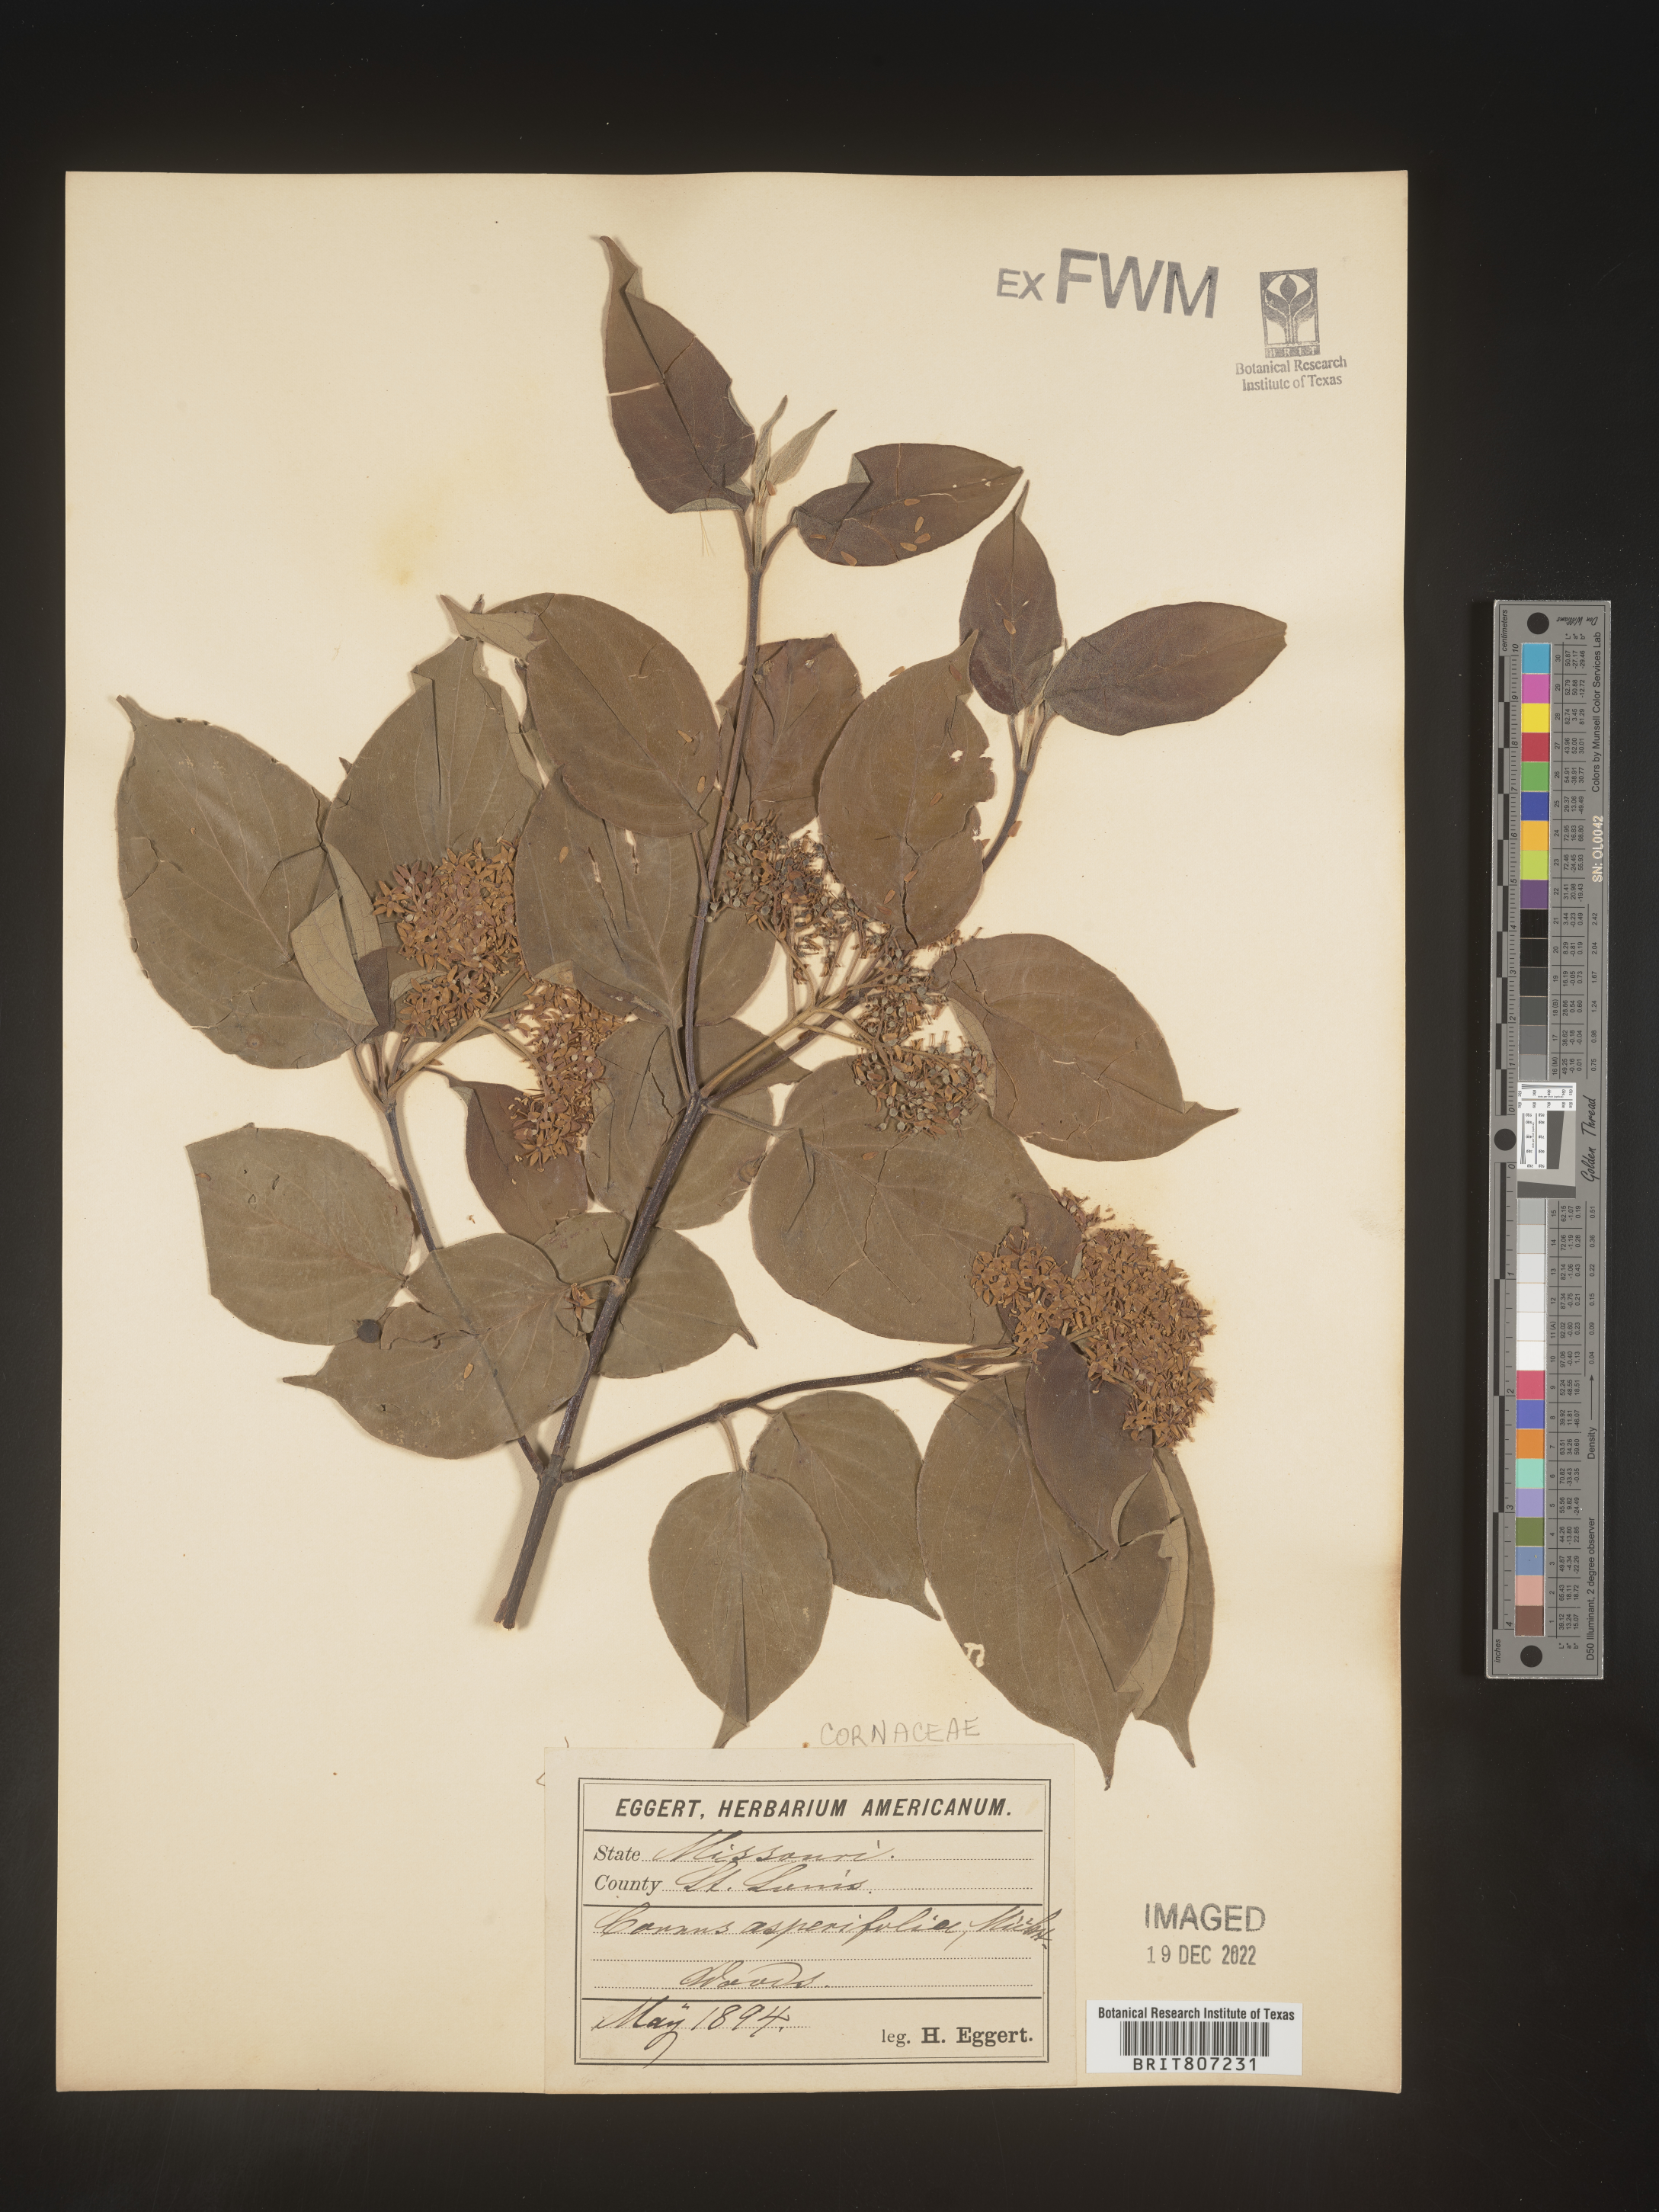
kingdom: Plantae
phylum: Tracheophyta
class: Magnoliopsida
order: Cornales
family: Cornaceae
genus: Cornus
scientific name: Cornus asperifolia
